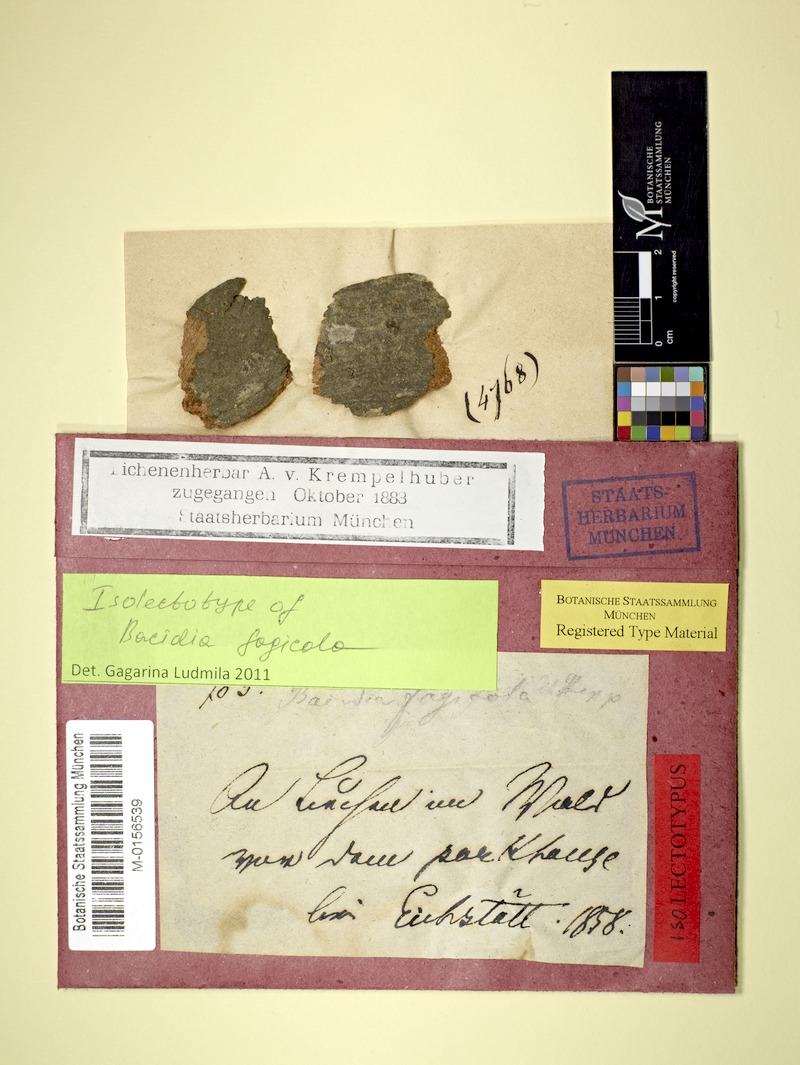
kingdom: Fungi
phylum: Ascomycota
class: Lecanoromycetes
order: Gyalectales
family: Gyalectaceae
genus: Pachyphiale
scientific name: Pachyphiale fagicola
